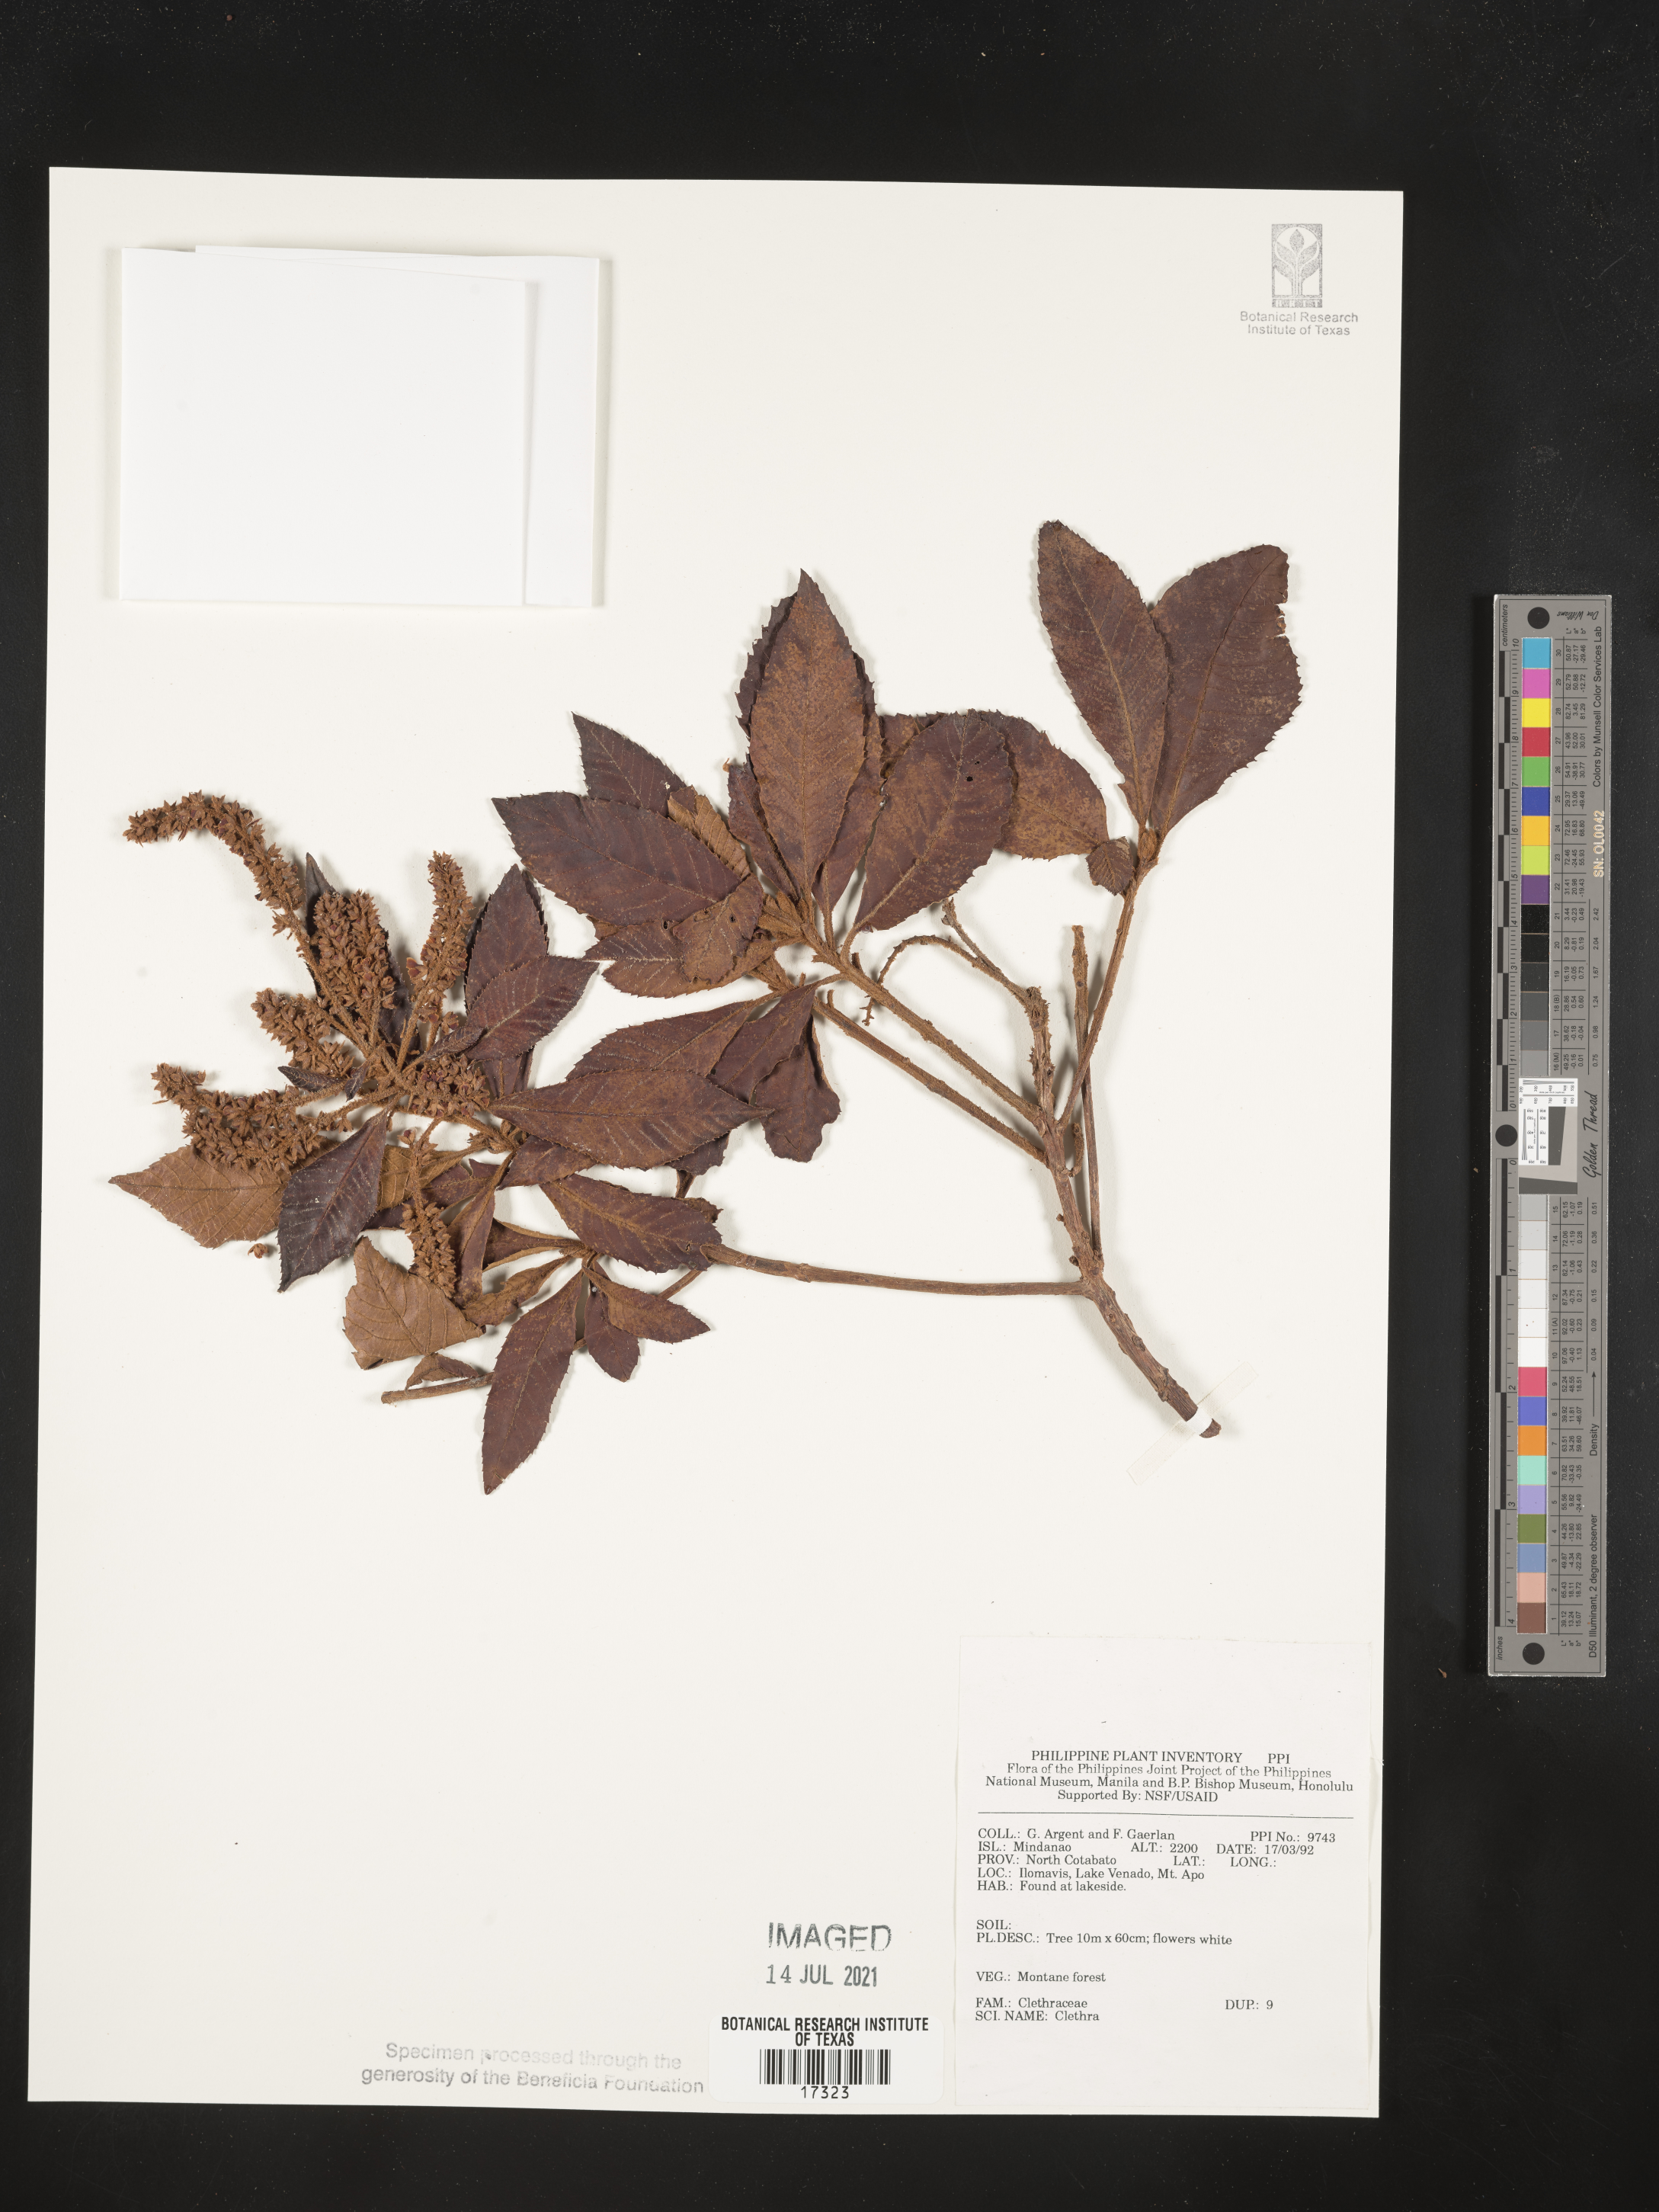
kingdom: Plantae
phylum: Tracheophyta
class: Magnoliopsida
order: Ericales
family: Clethraceae
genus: Clethra
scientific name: Clethra
